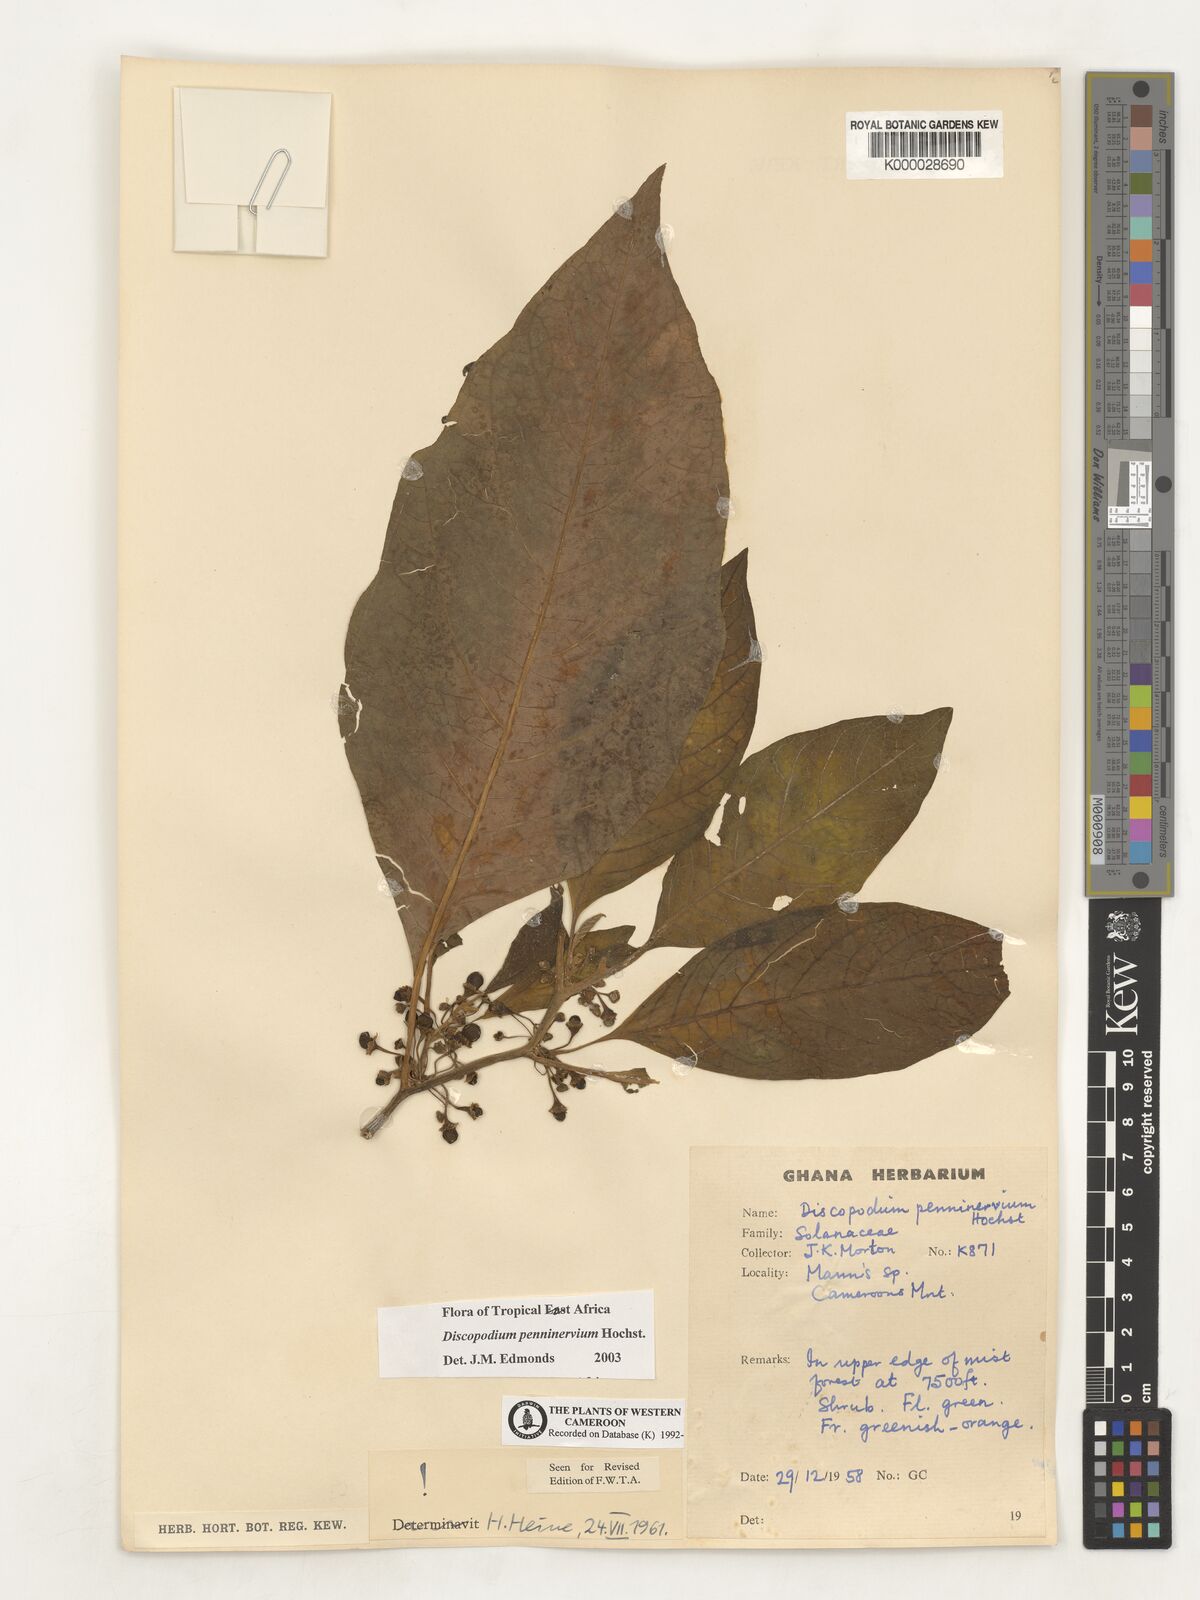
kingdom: Plantae
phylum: Tracheophyta
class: Magnoliopsida
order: Solanales
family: Solanaceae
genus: Discopodium
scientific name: Discopodium penninervium
